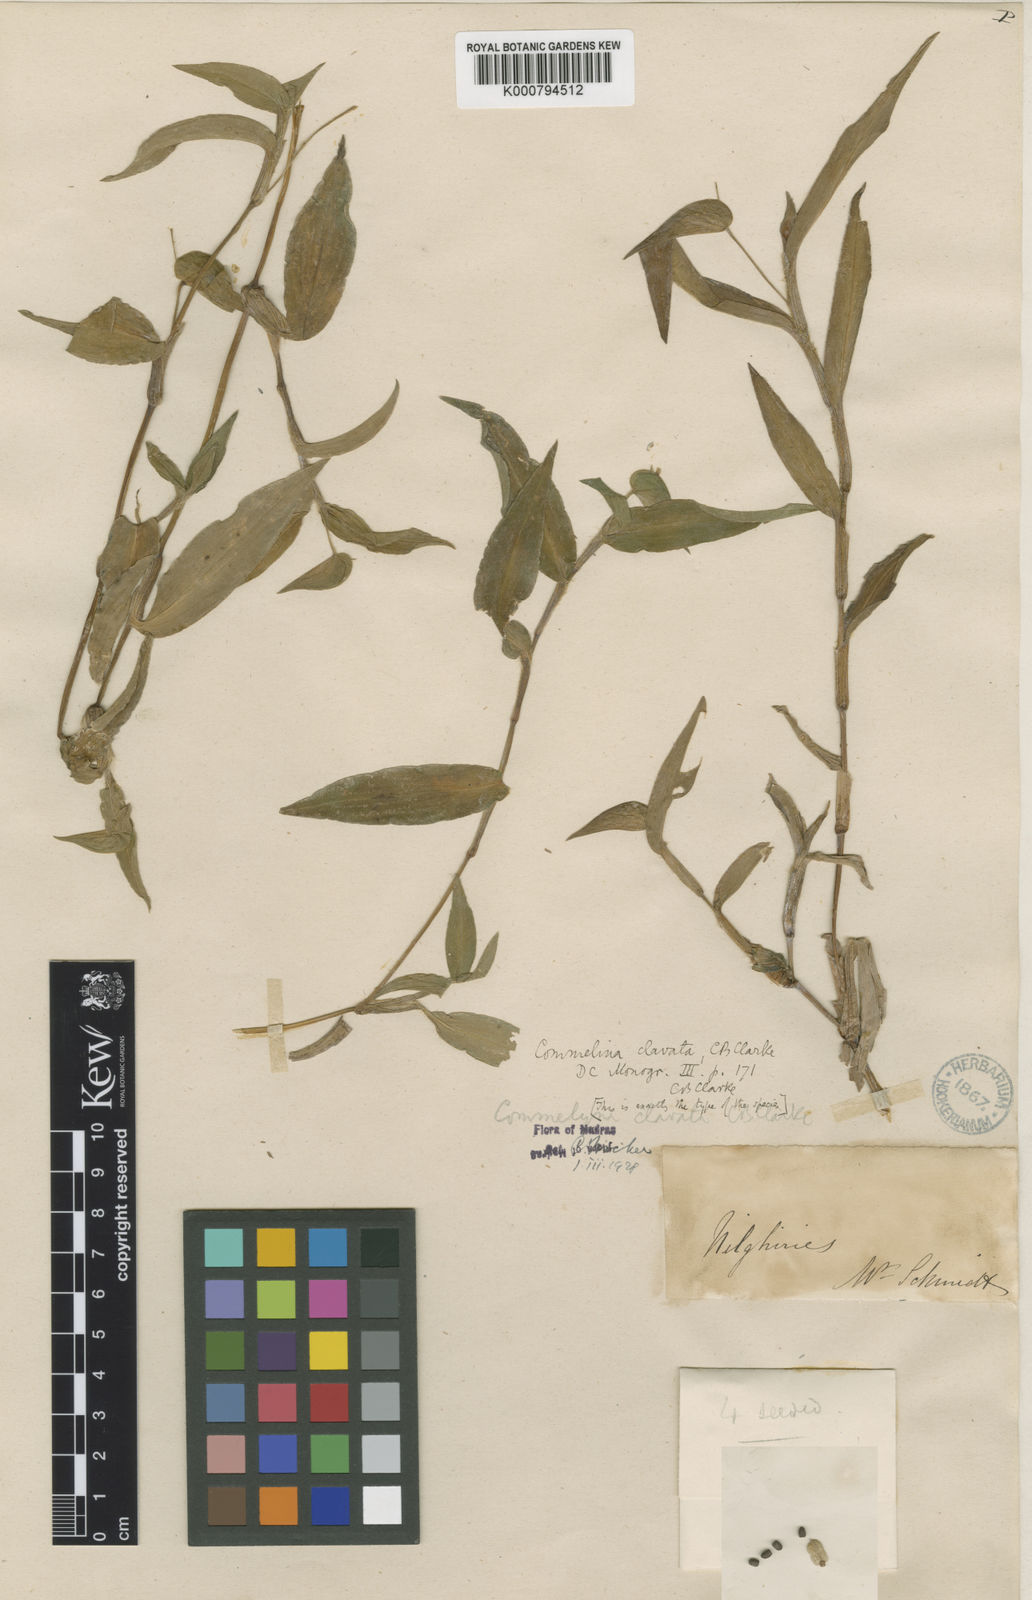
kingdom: Plantae
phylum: Tracheophyta
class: Liliopsida
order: Commelinales
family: Commelinaceae
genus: Commelina
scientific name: Commelina clavata
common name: Willow leaved dayflower
